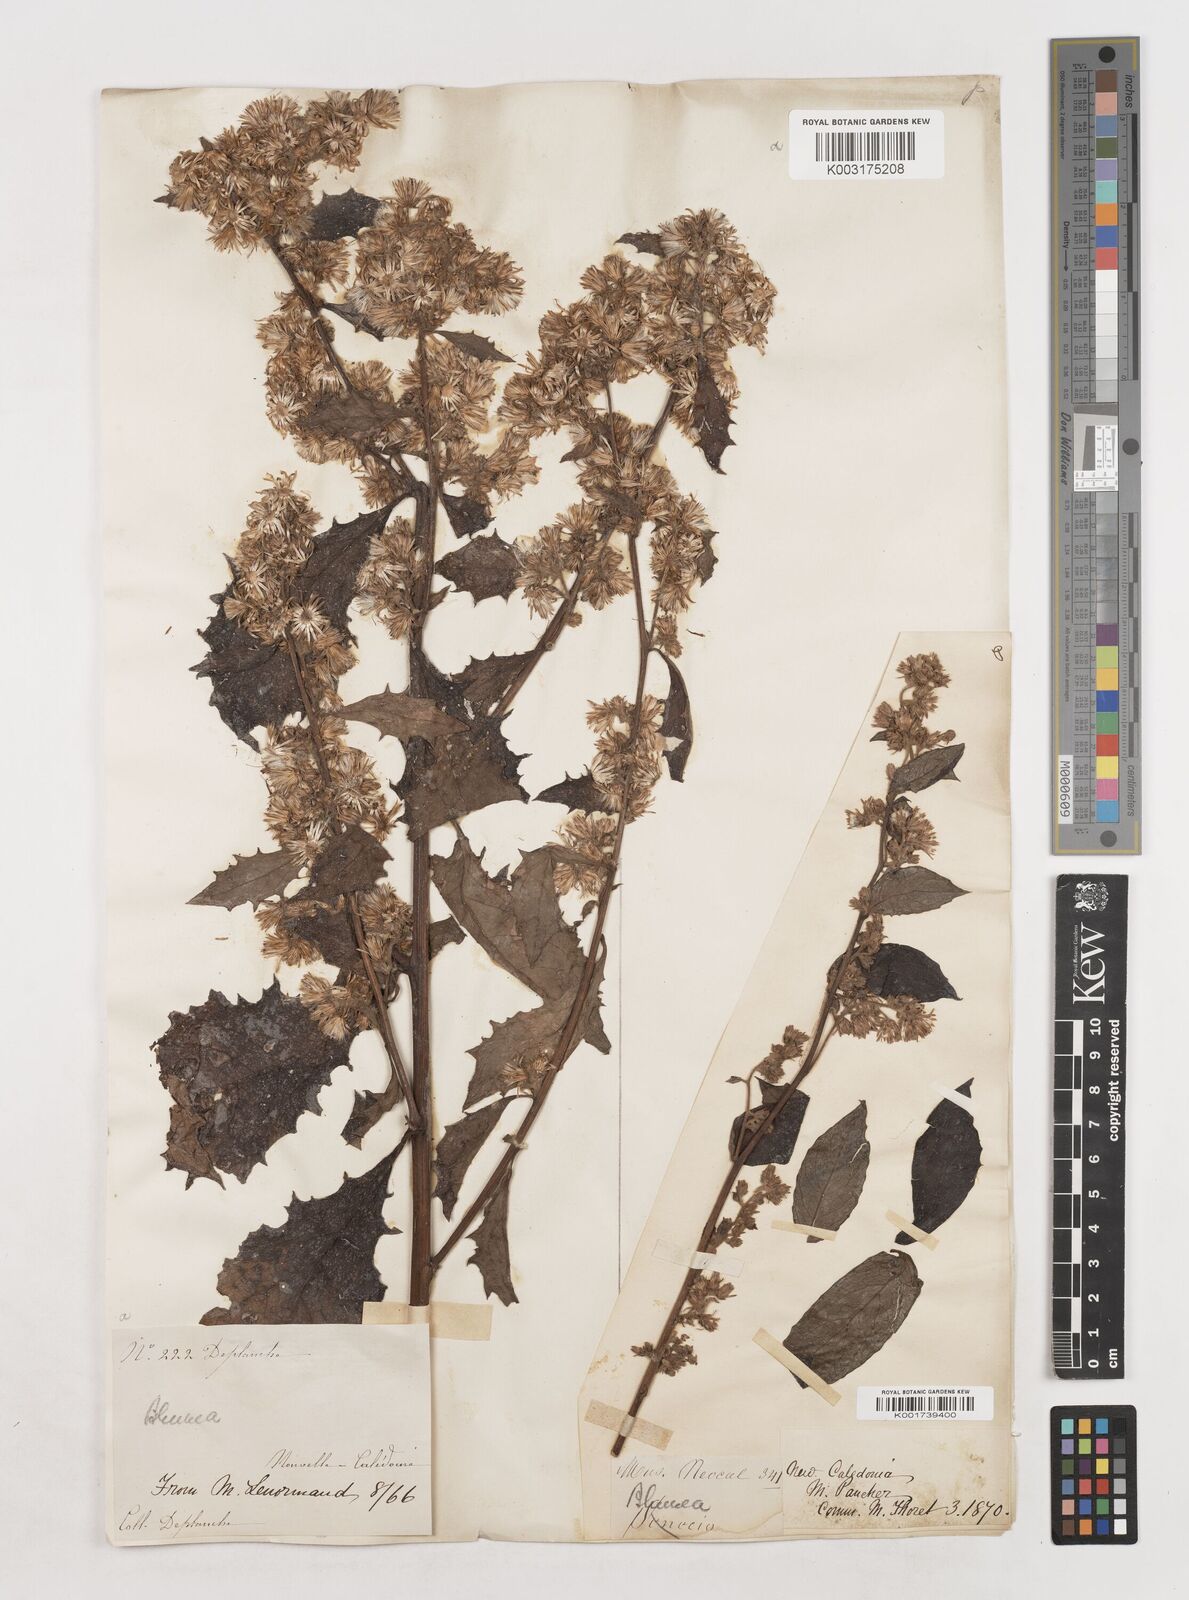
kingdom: Plantae
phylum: Tracheophyta
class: Magnoliopsida
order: Asterales
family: Asteraceae
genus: Blumea
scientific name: Blumea
